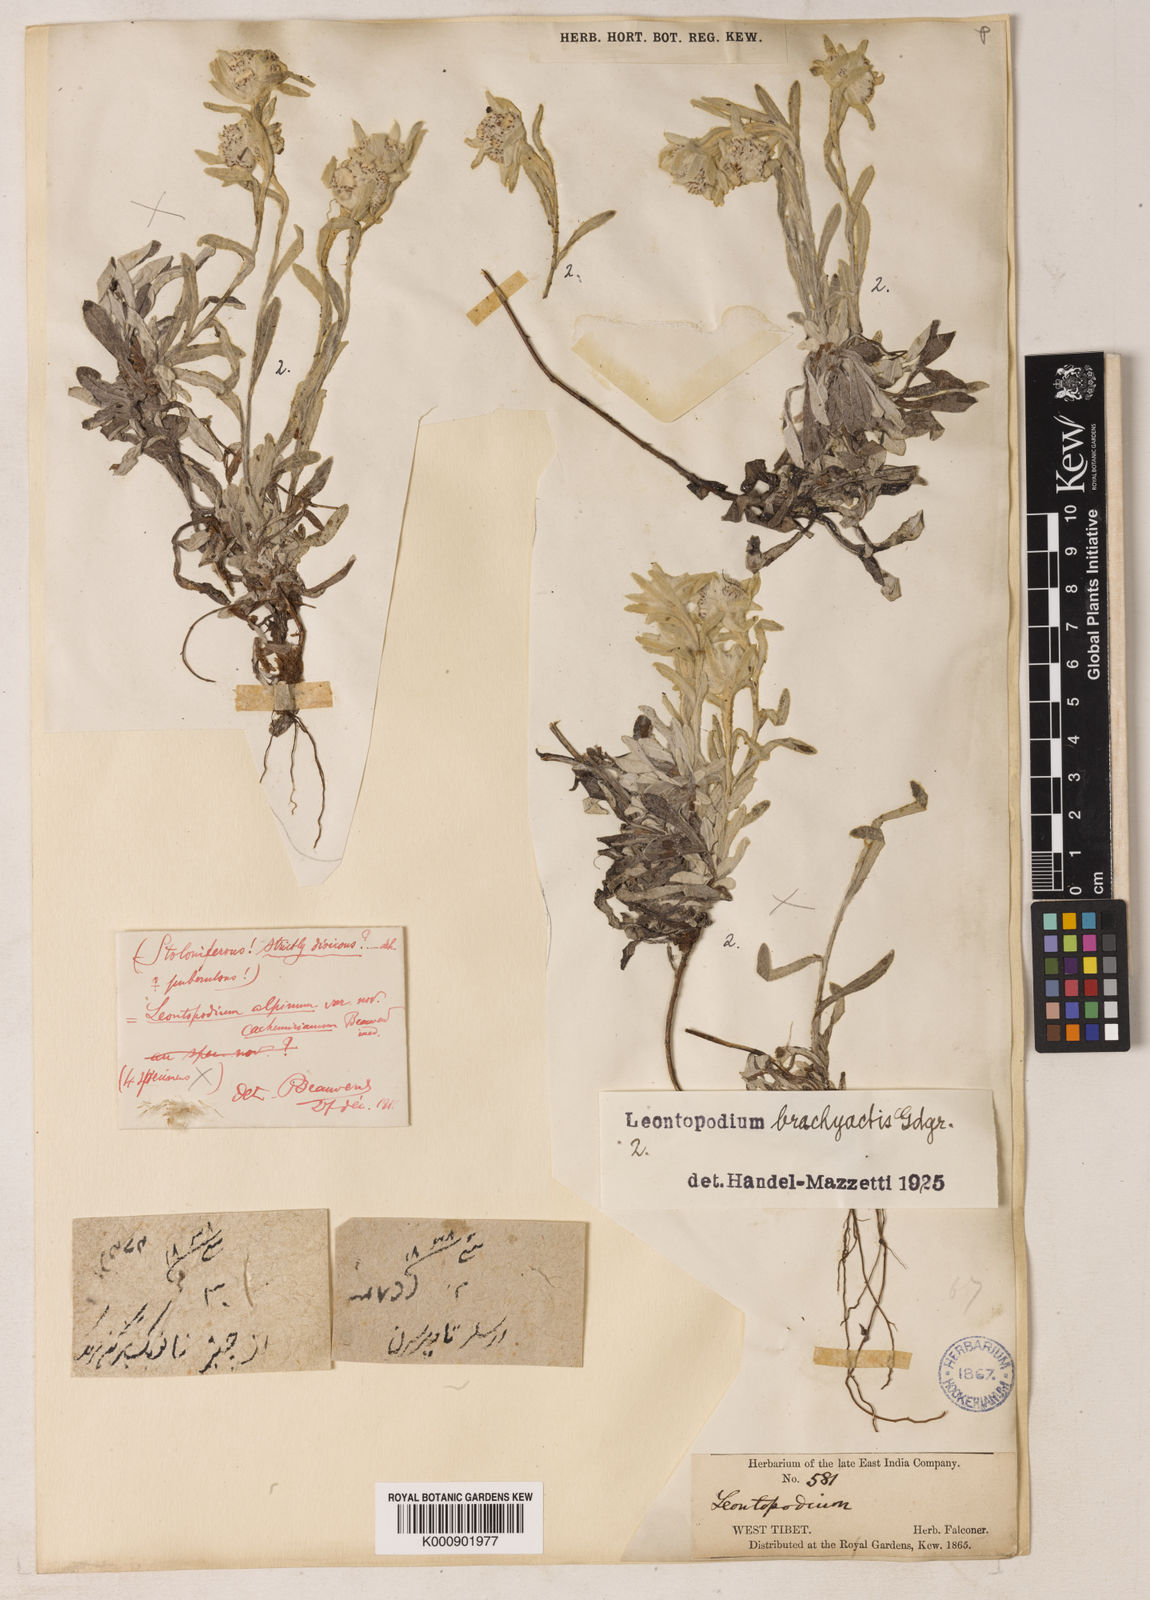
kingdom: Plantae
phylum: Tracheophyta
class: Magnoliopsida
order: Asterales
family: Asteraceae
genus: Leontopodium
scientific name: Leontopodium brachyactis
